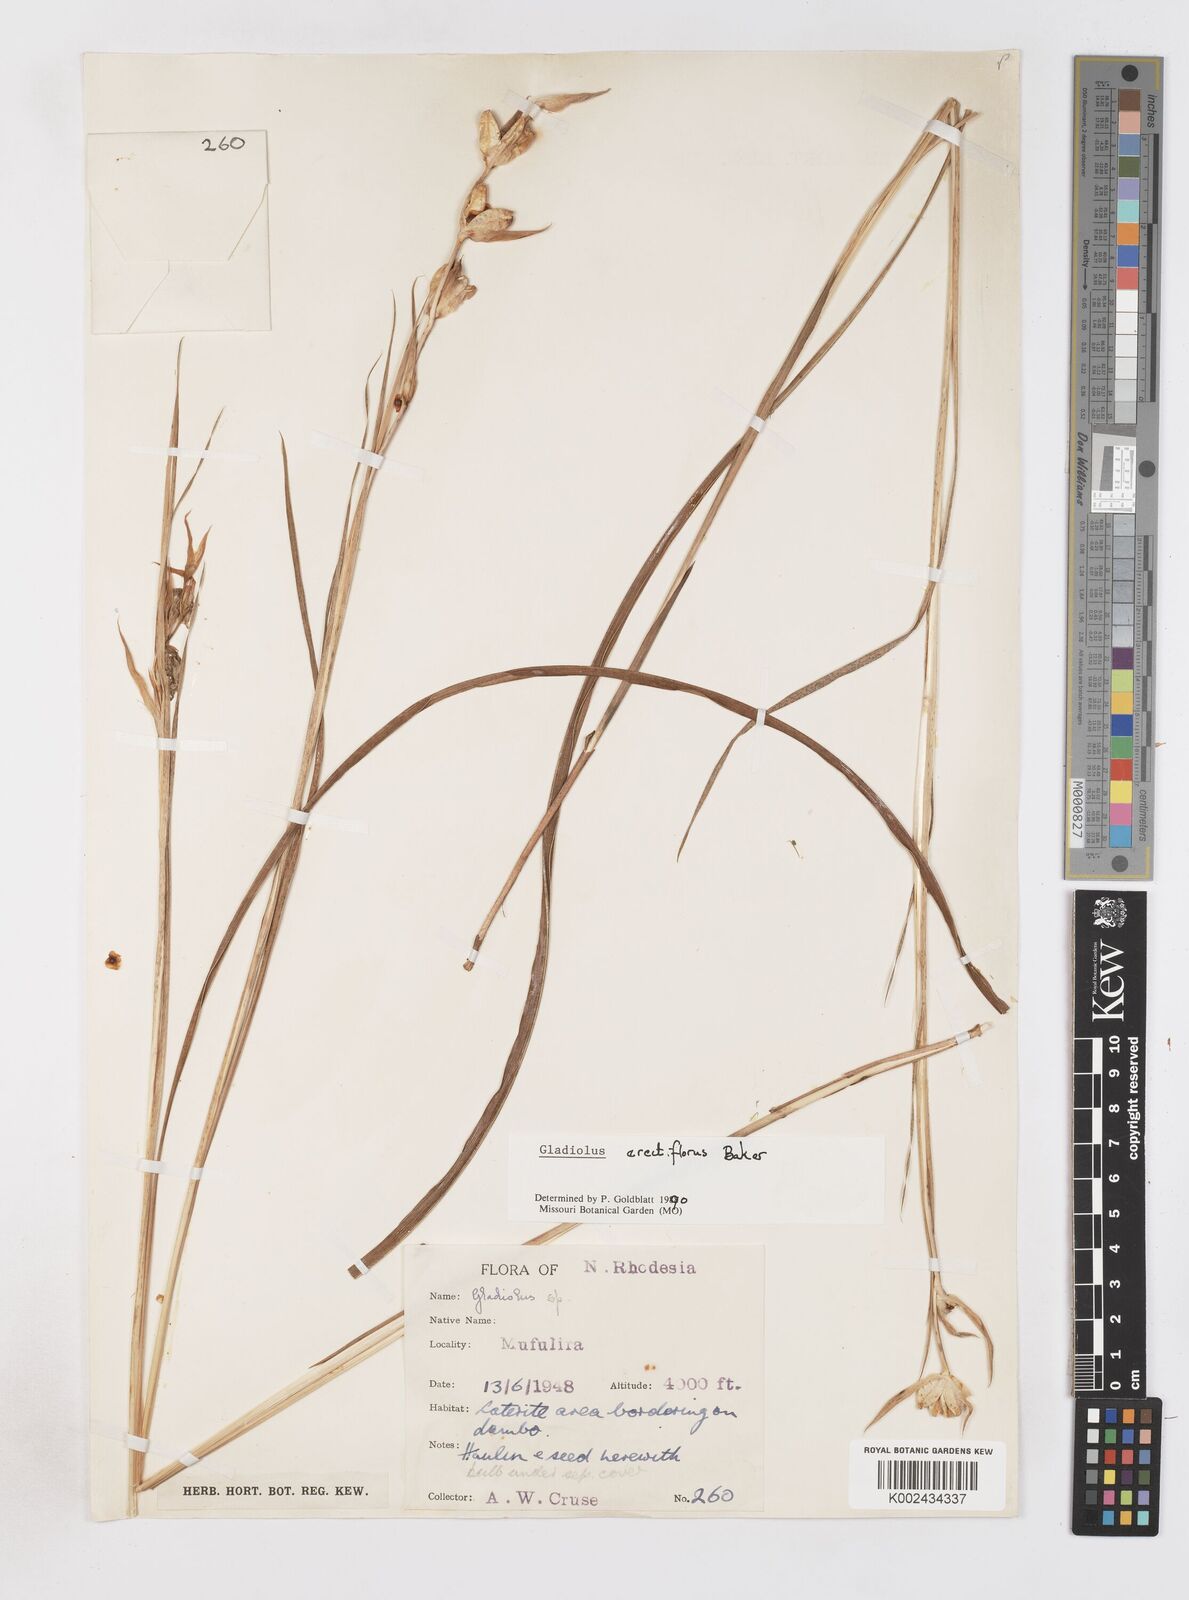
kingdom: Plantae
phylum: Tracheophyta
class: Liliopsida
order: Asparagales
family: Iridaceae
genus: Gladiolus
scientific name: Gladiolus erectiflorus
